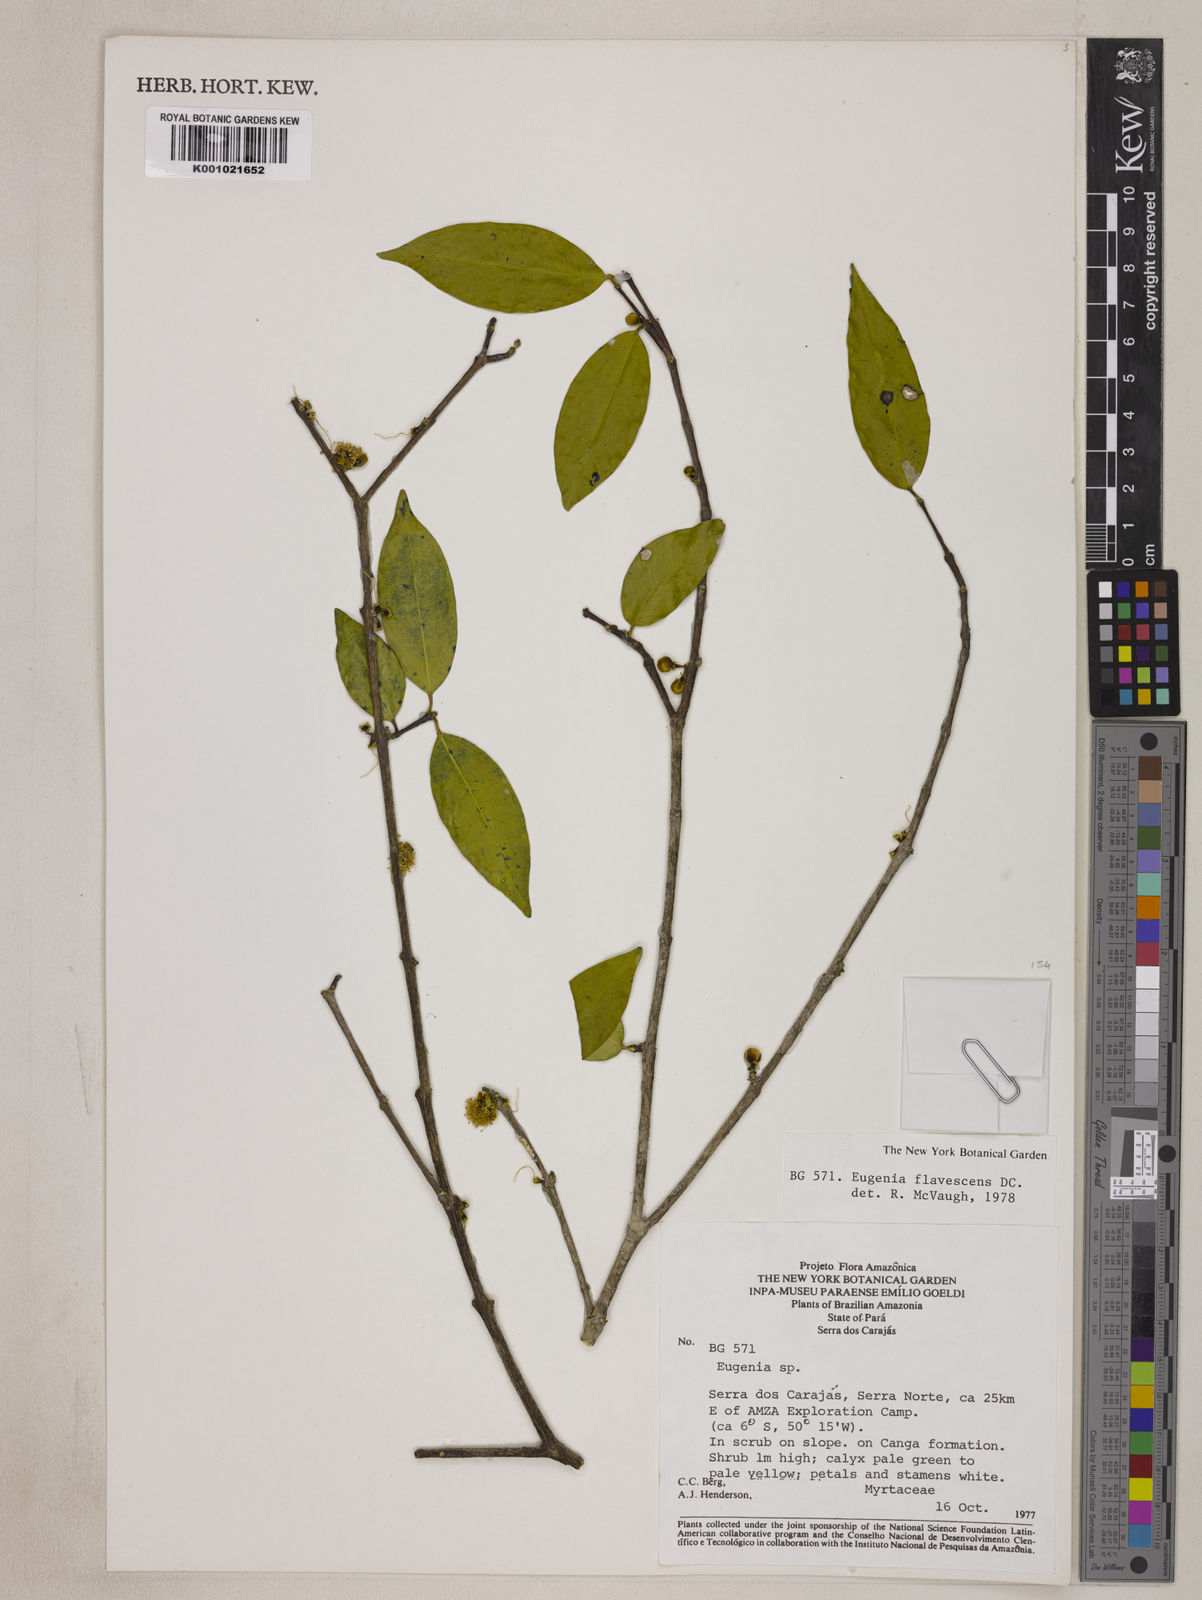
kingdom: Plantae
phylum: Tracheophyta
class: Magnoliopsida
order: Myrtales
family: Myrtaceae
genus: Eugenia
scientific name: Eugenia flavescens
